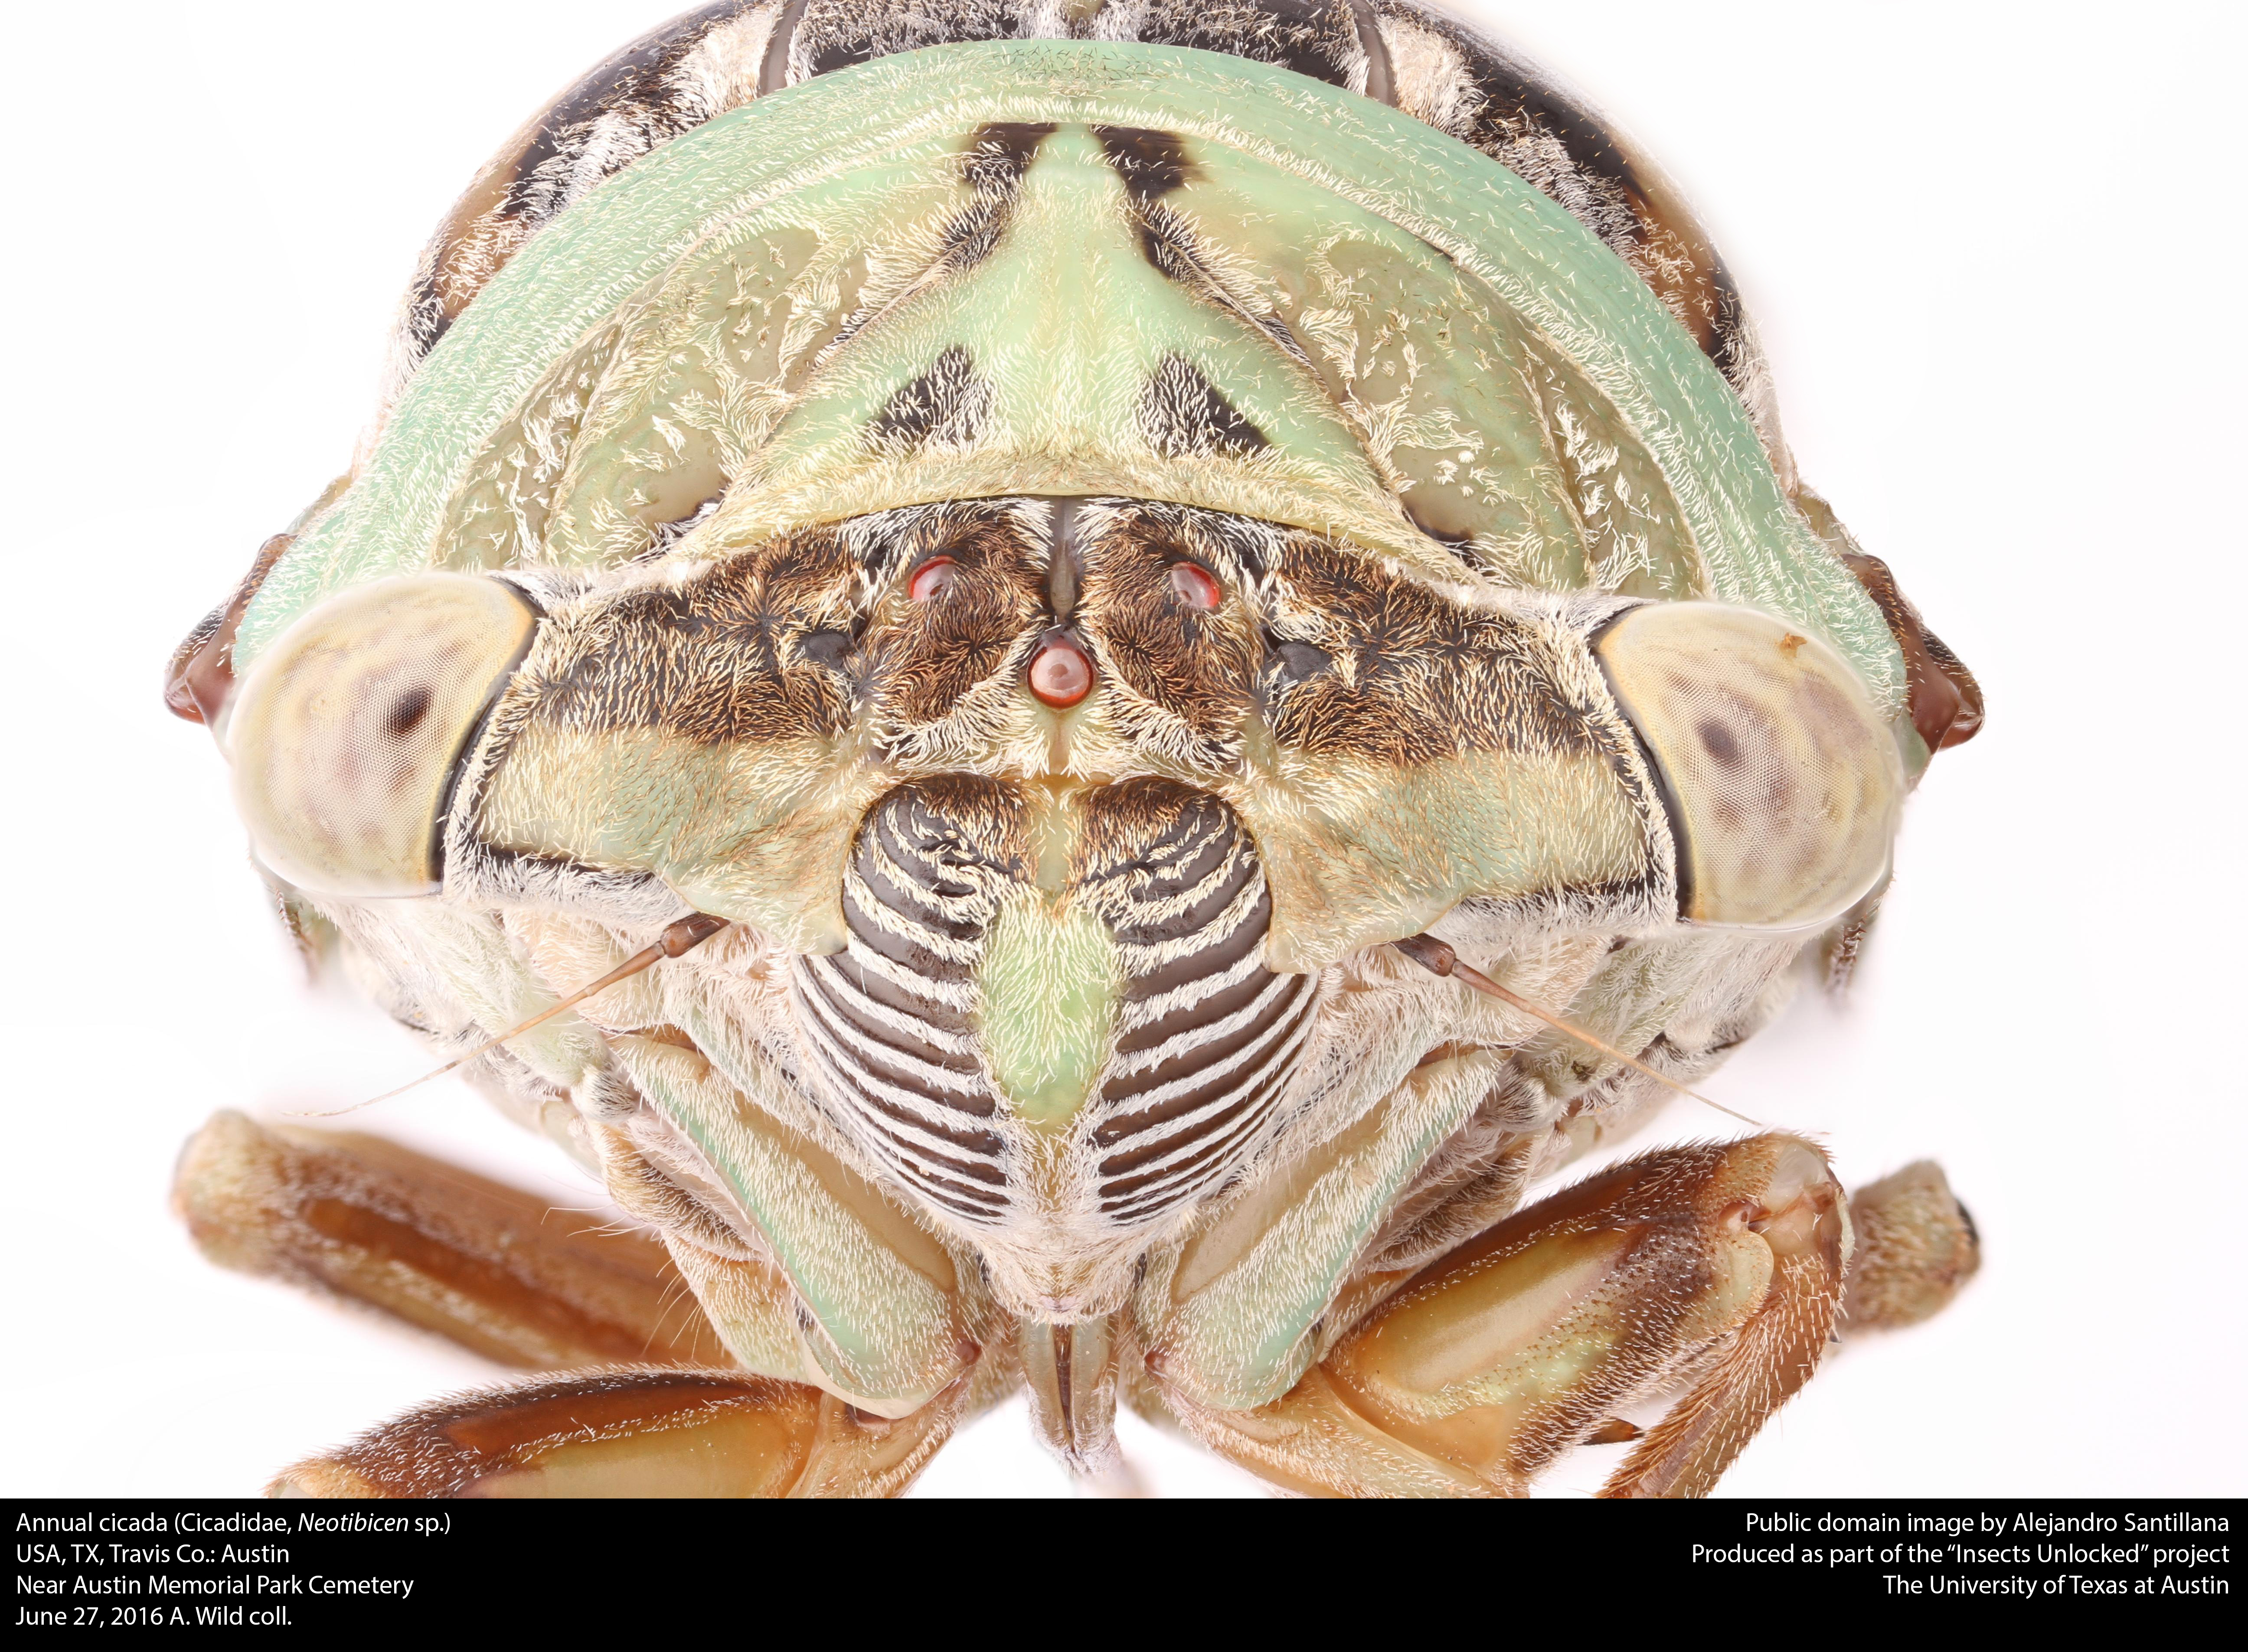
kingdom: Animalia
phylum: Arthropoda
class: Insecta
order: Hemiptera
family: Cicadidae
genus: Megatibicen
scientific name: Megatibicen resh
